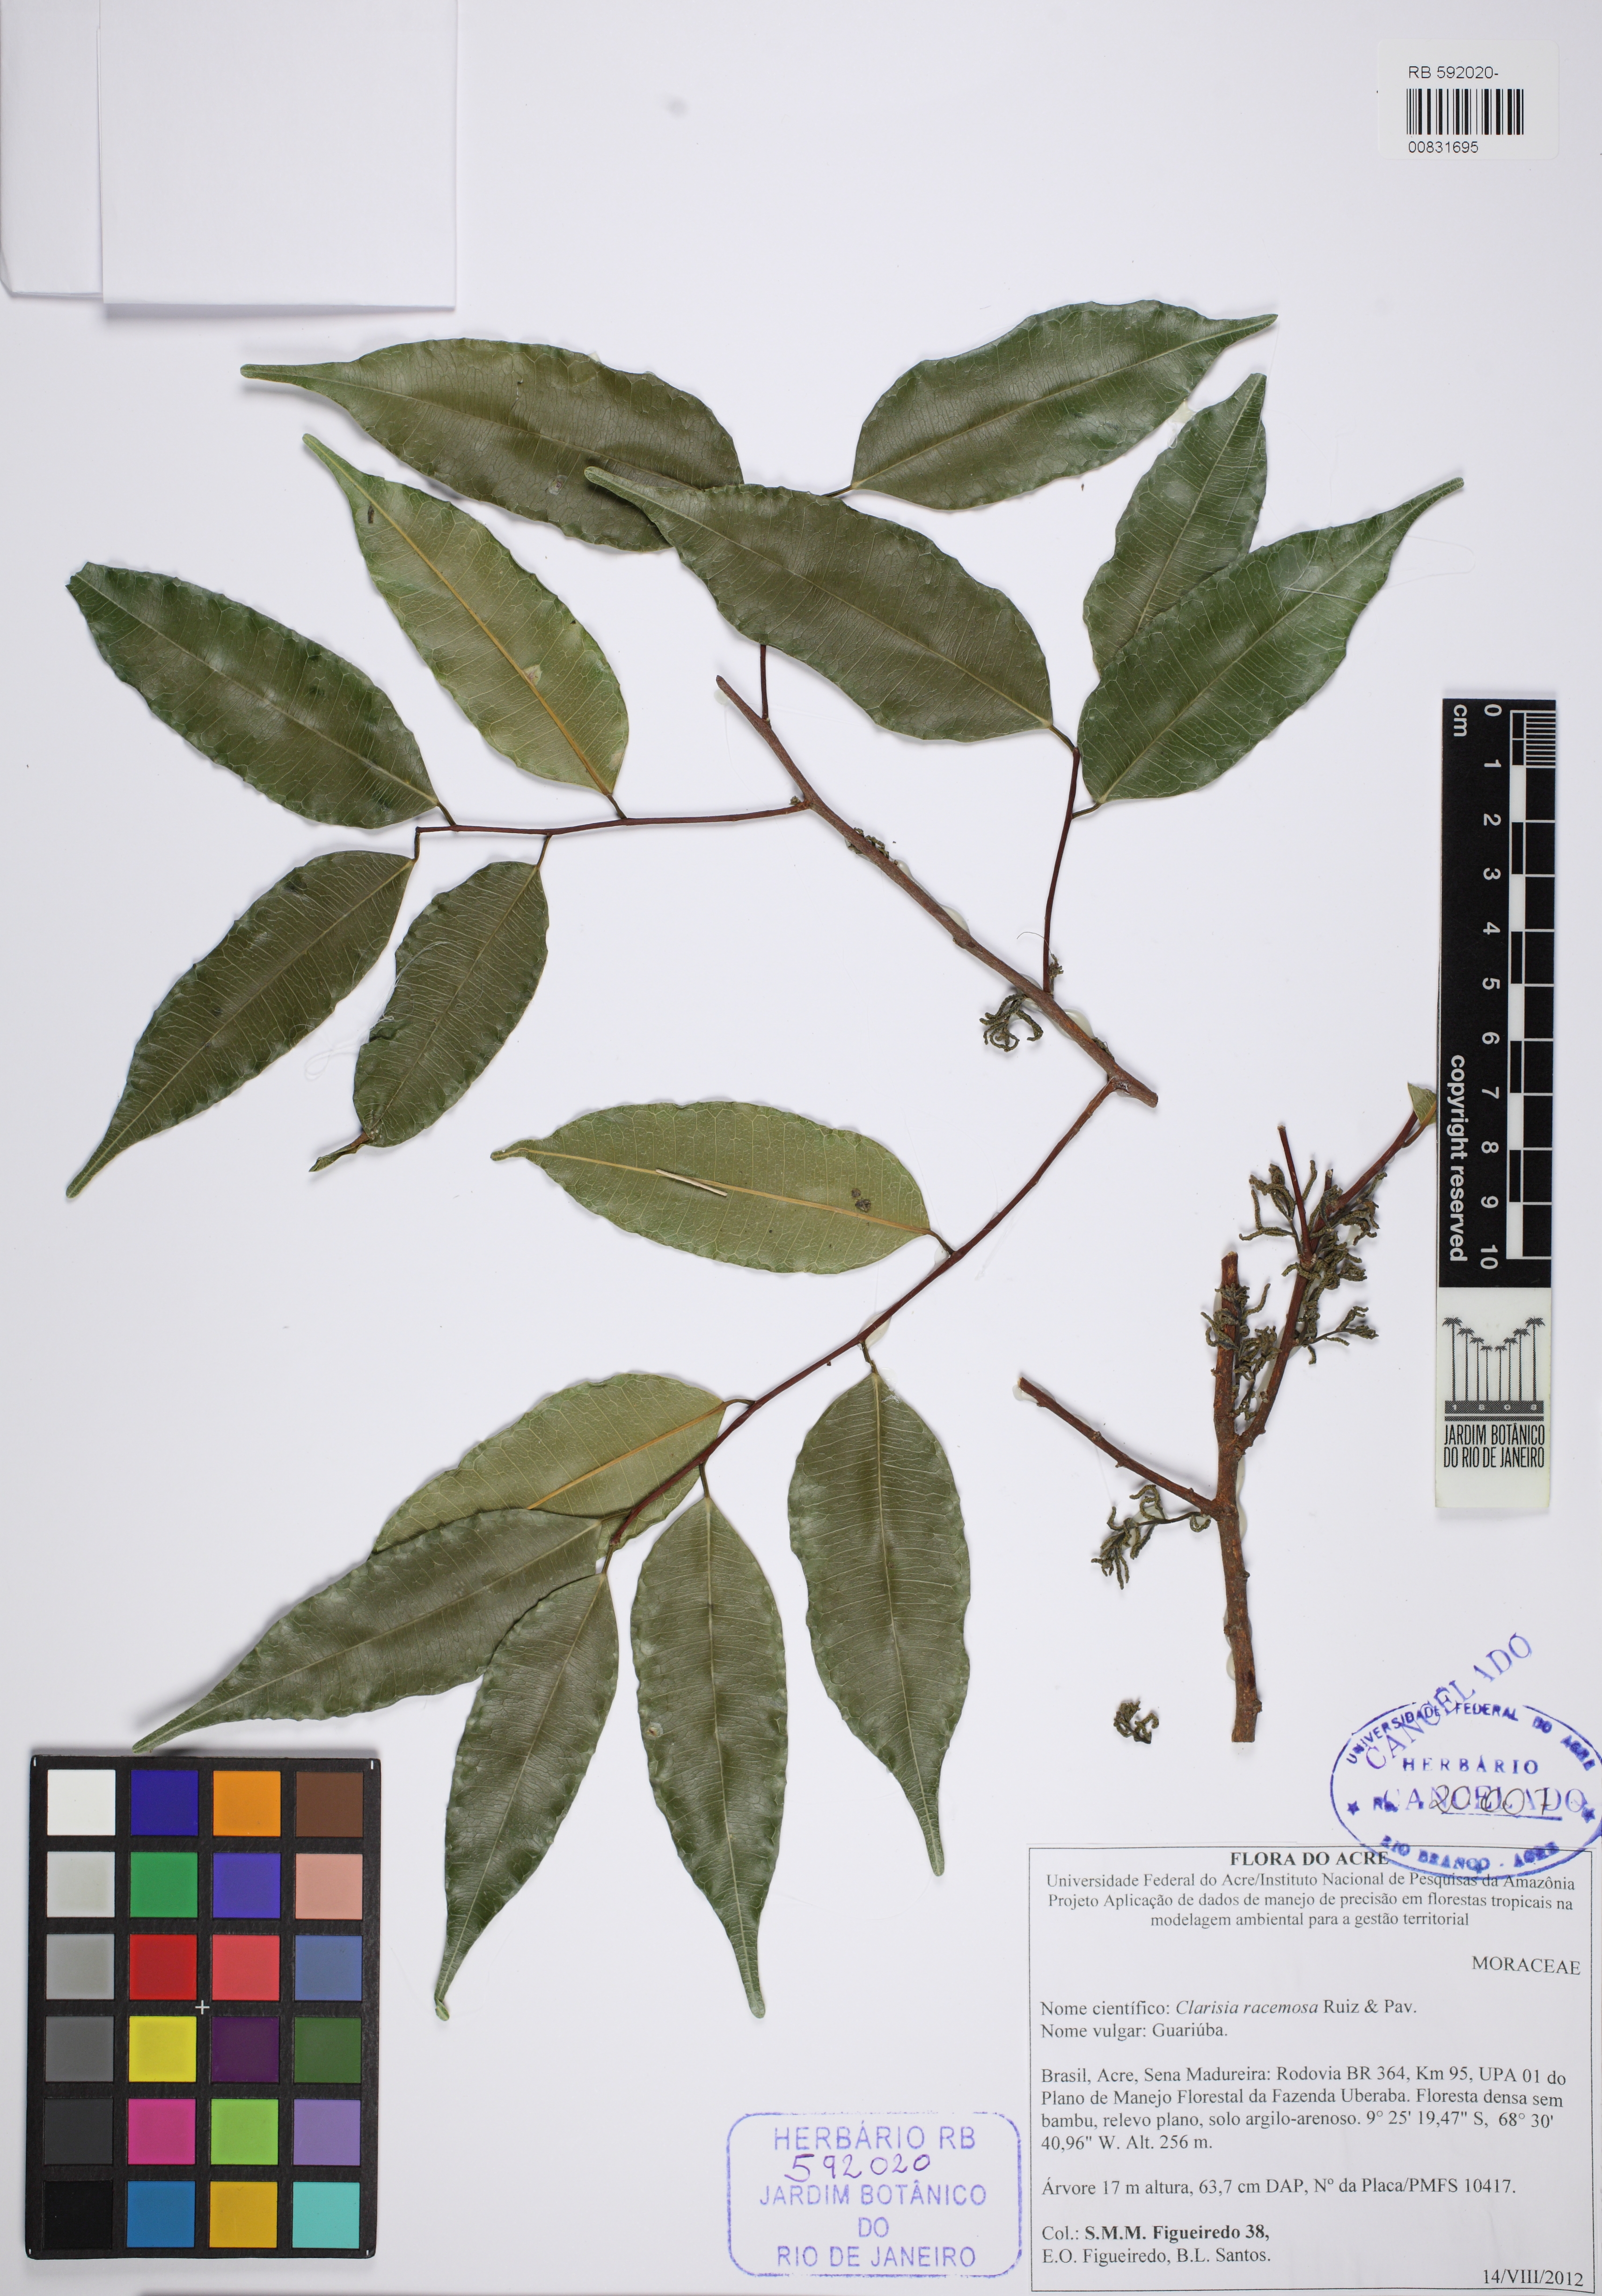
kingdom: Plantae
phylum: Tracheophyta
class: Magnoliopsida
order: Rosales
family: Moraceae
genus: Clarisia
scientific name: Clarisia racemosa
